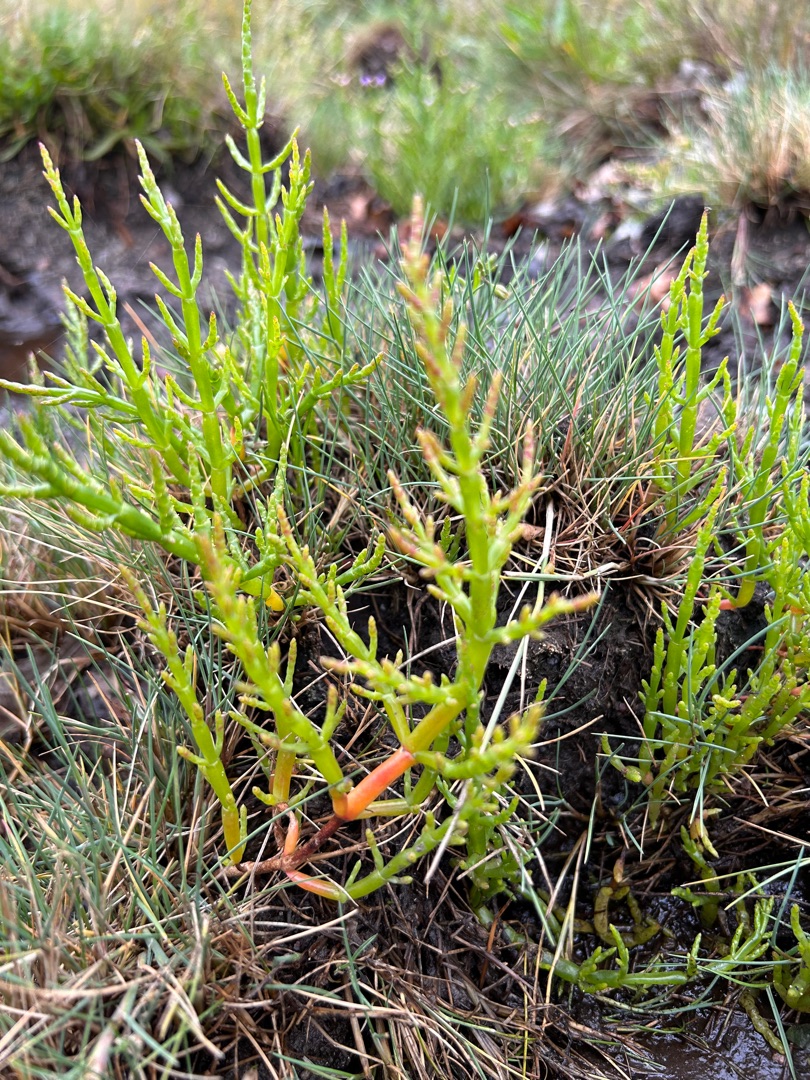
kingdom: Plantae
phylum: Tracheophyta
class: Magnoliopsida
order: Caryophyllales
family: Amaranthaceae
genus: Salicornia
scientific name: Salicornia europaea
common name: Almindelig salturt
